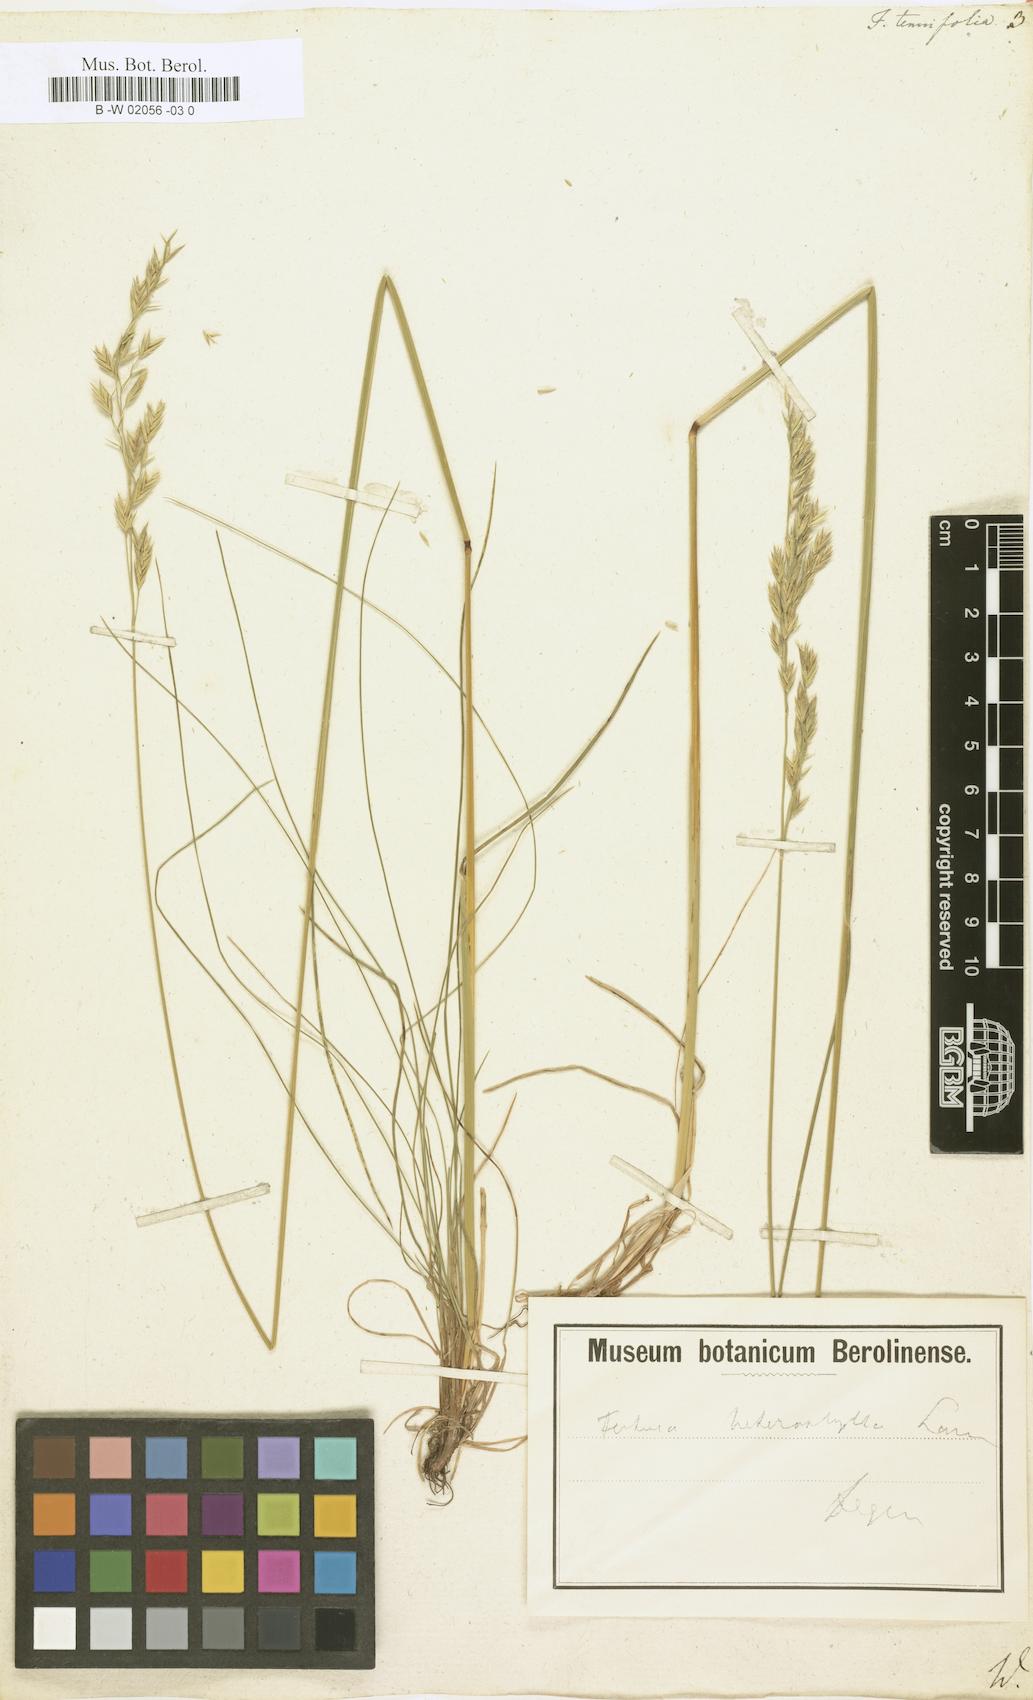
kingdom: Plantae
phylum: Tracheophyta
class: Liliopsida
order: Poales
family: Poaceae
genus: Festuca
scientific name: Festuca
